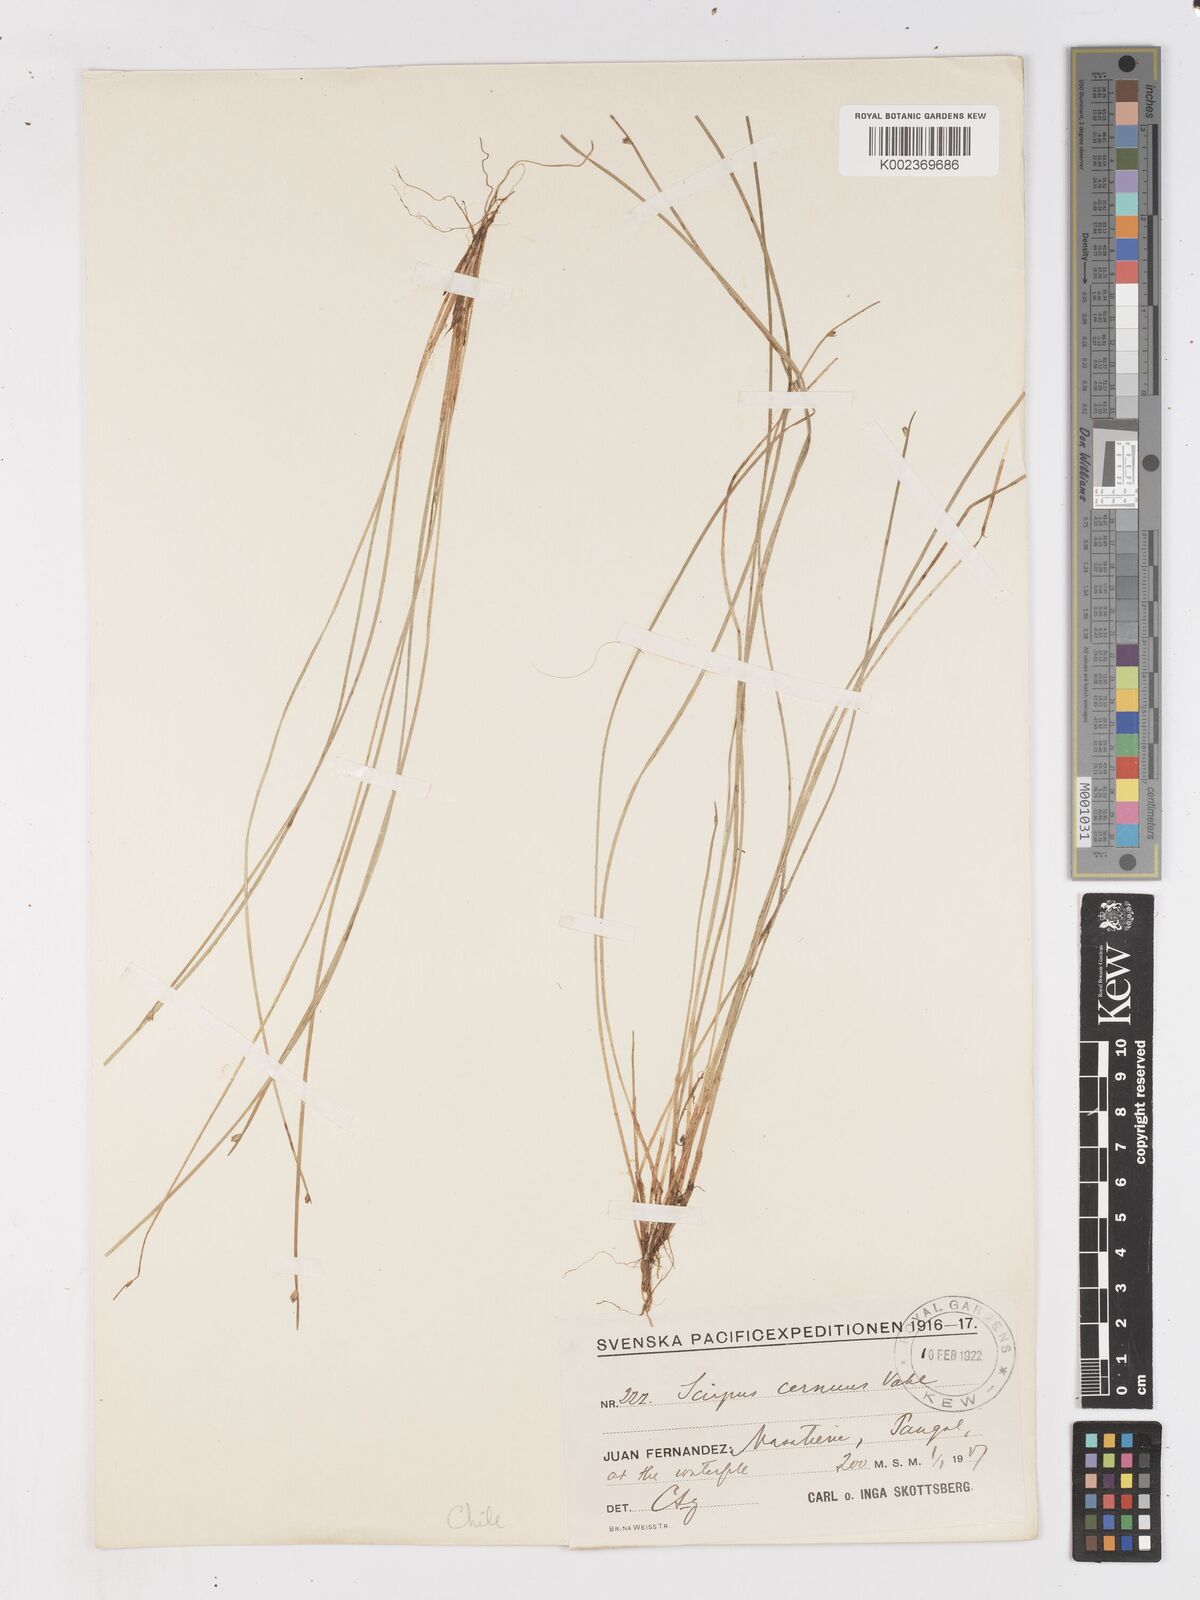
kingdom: Plantae
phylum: Tracheophyta
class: Liliopsida
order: Poales
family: Cyperaceae
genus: Isolepis
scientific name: Isolepis cernua
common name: Slender club-rush
